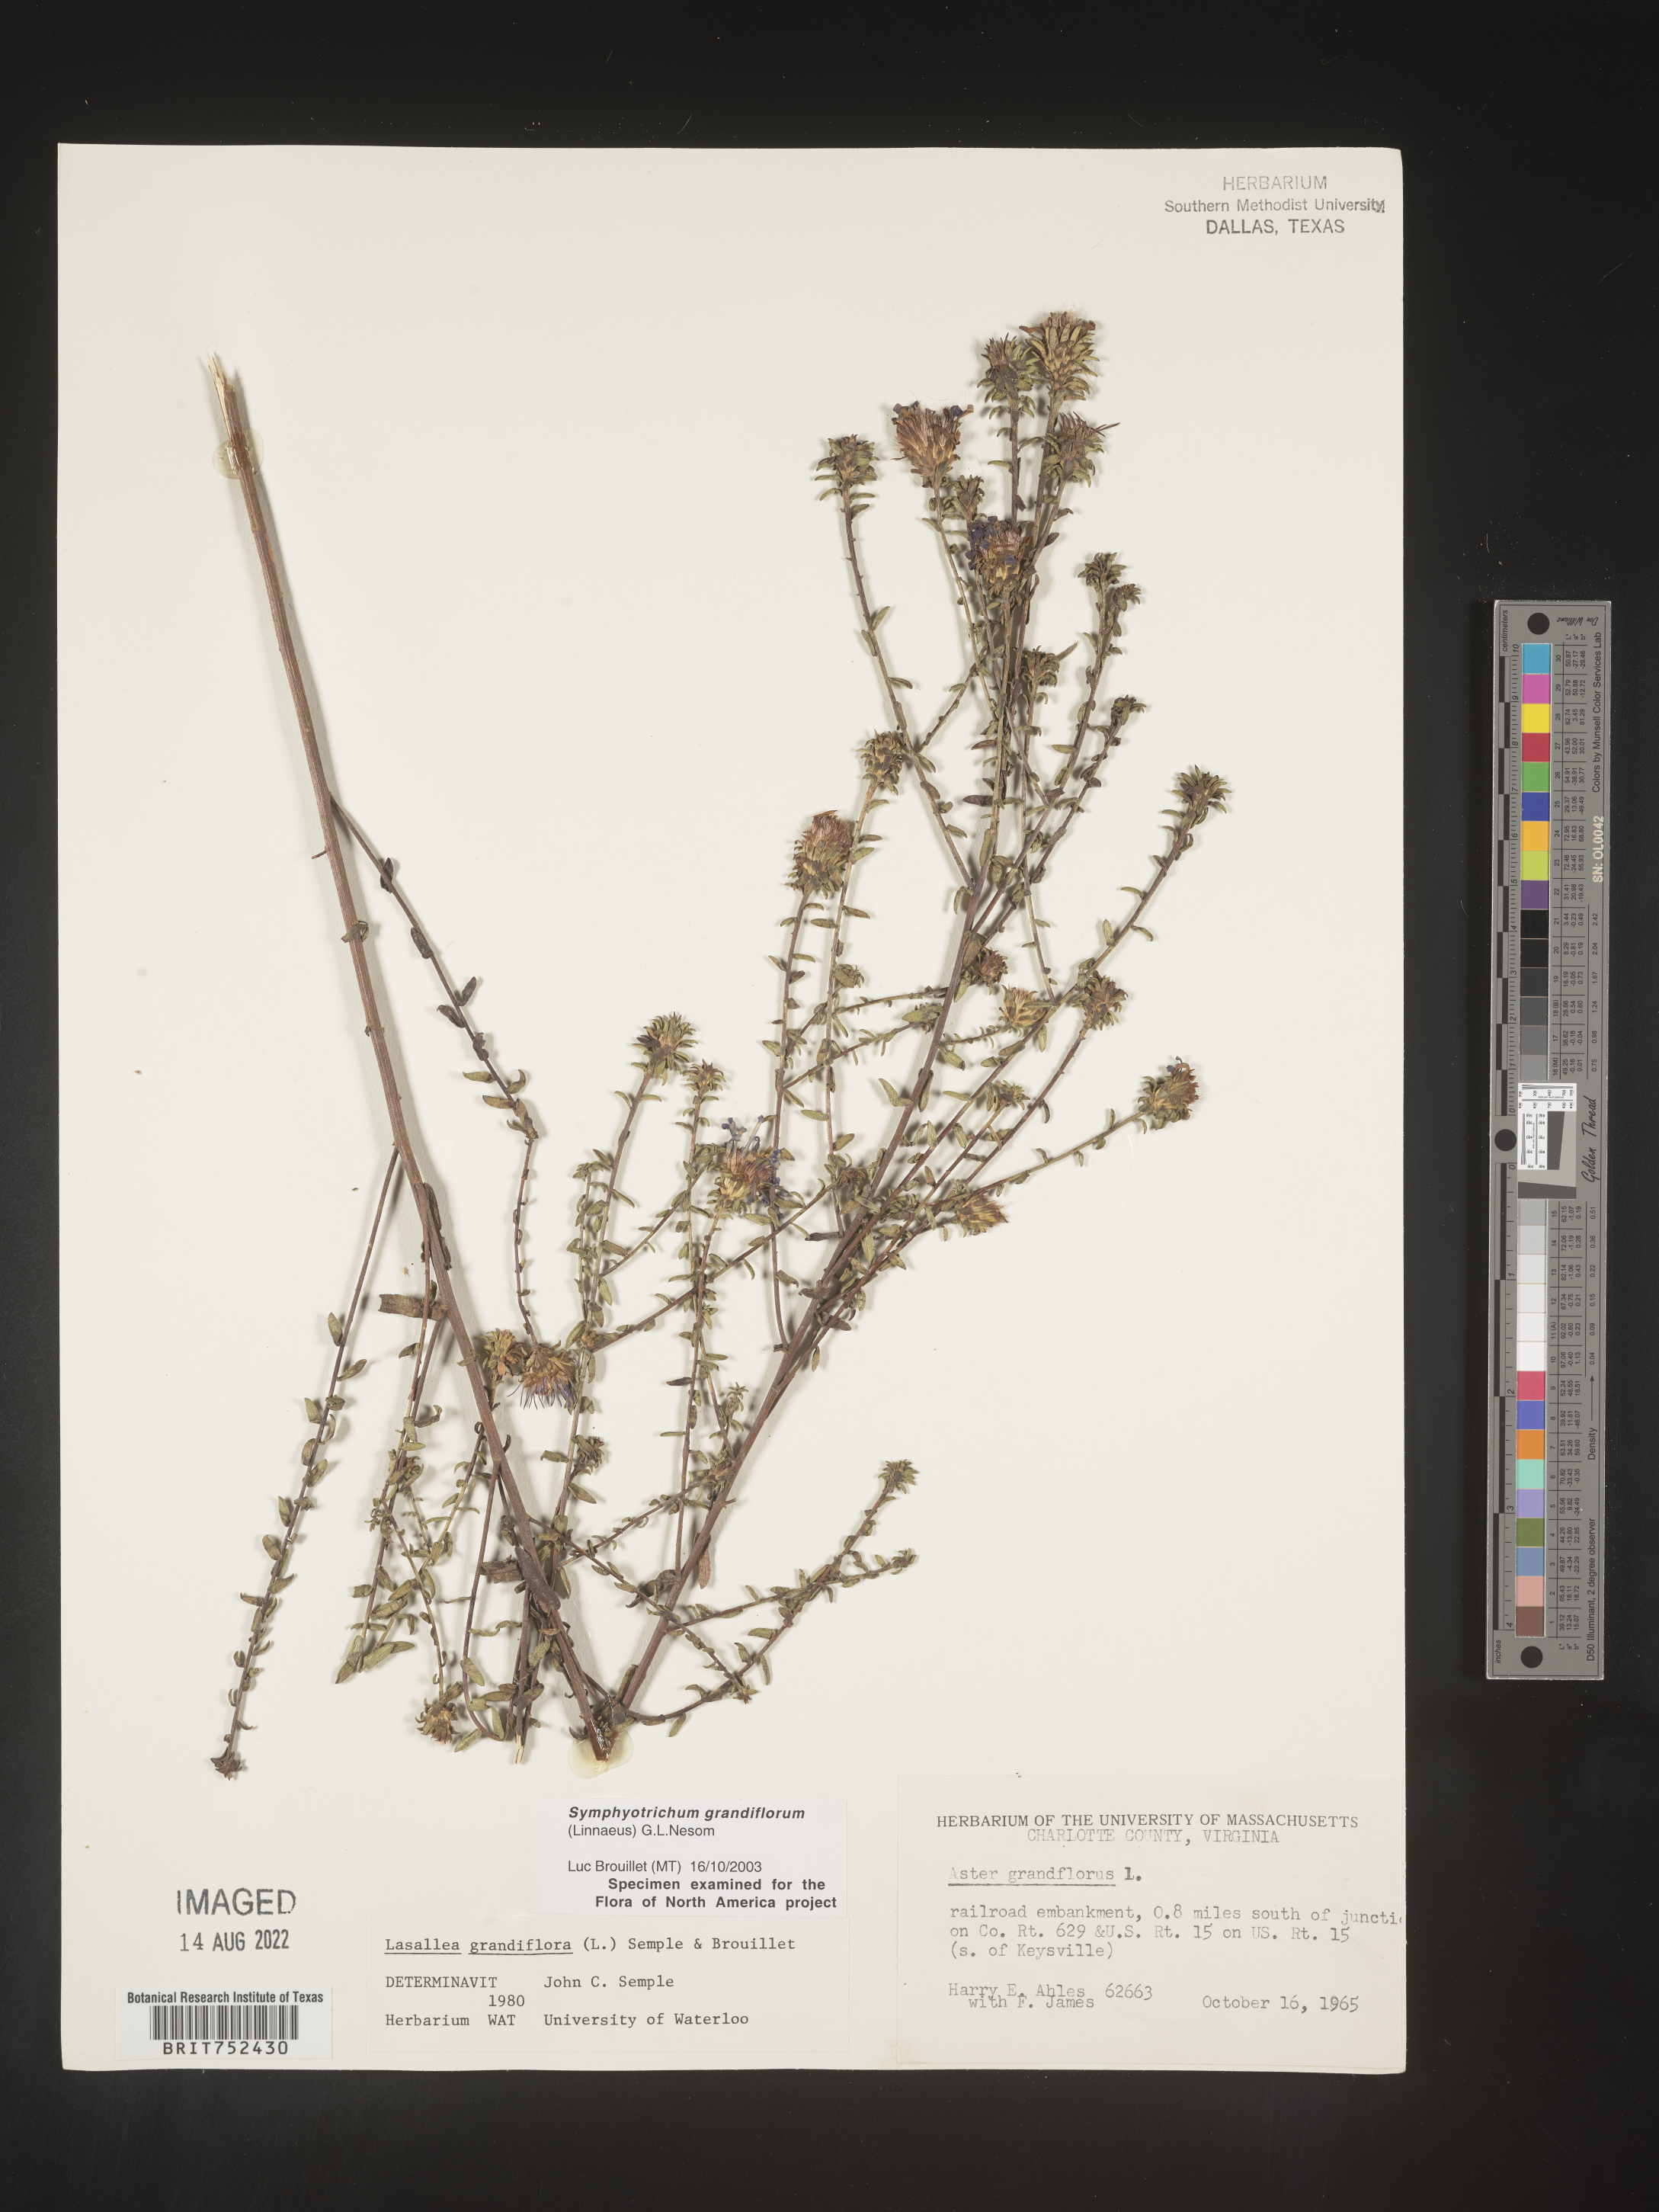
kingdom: Plantae
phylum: Tracheophyta
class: Magnoliopsida
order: Asterales
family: Asteraceae
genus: Symphyotrichum
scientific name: Symphyotrichum grandiflorum
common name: Big-head aster
